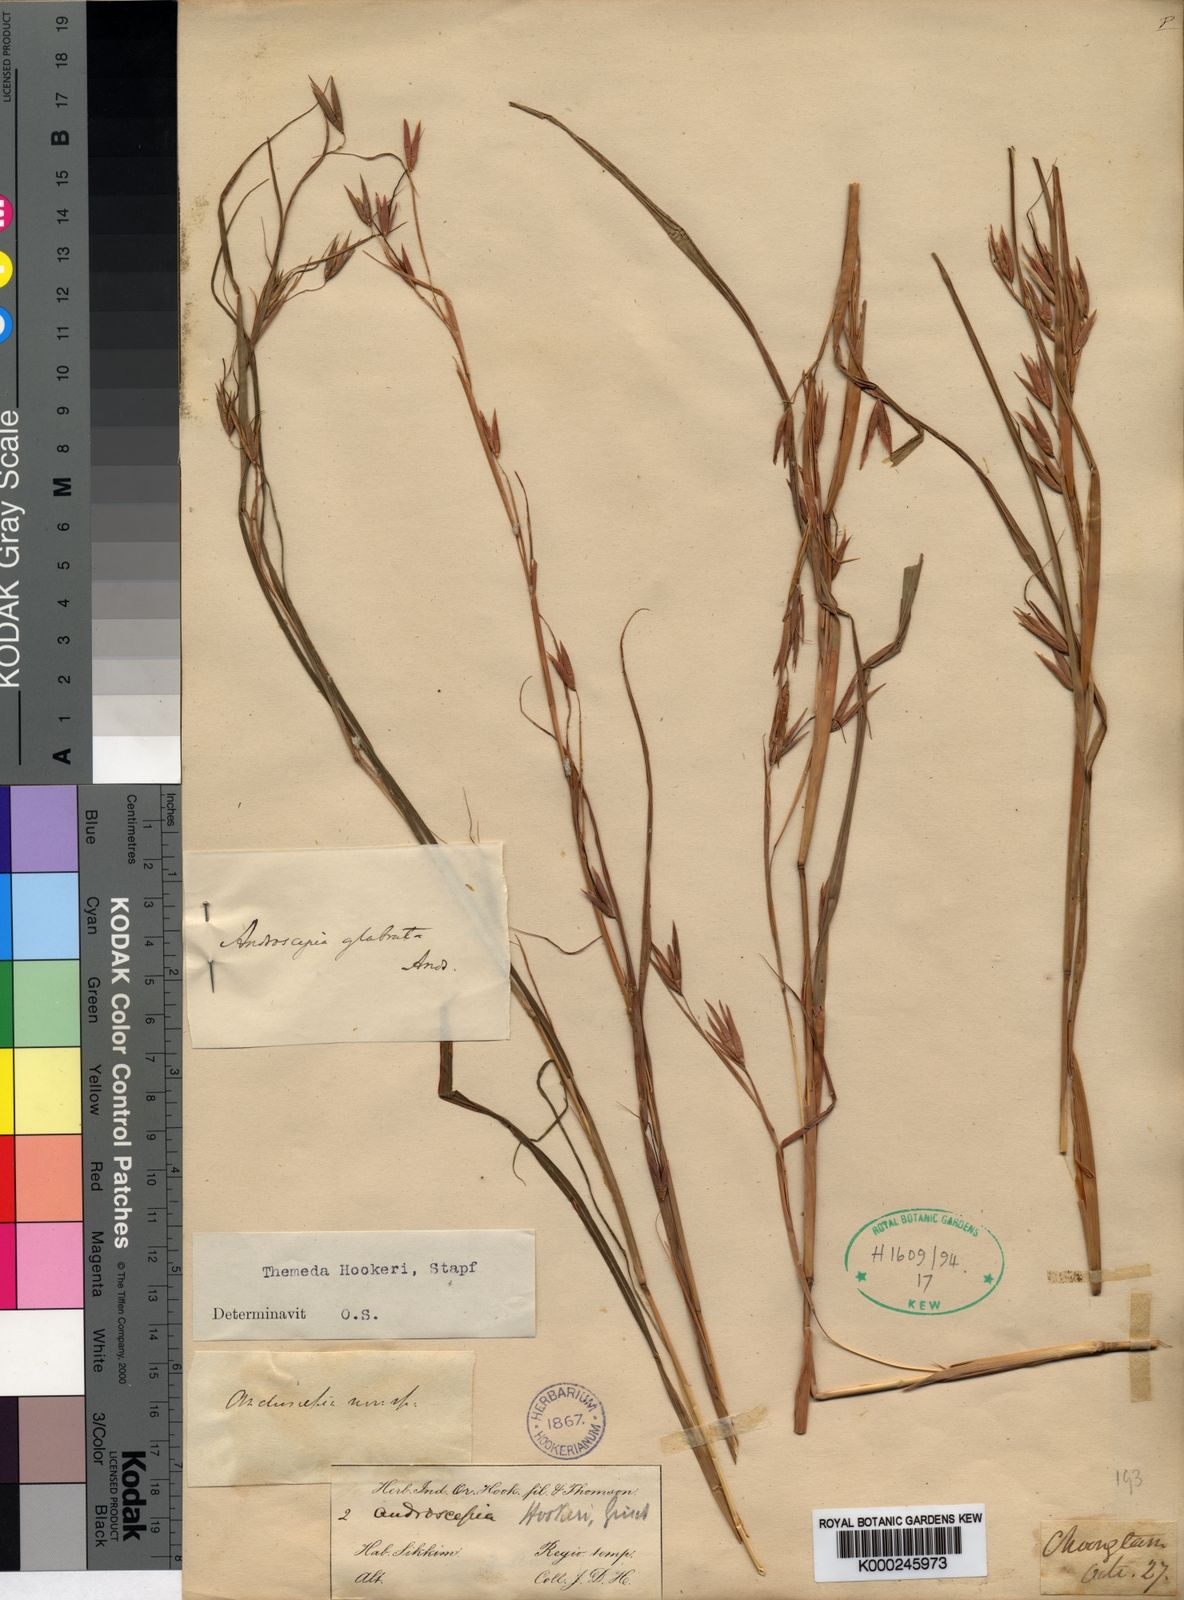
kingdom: Plantae
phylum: Tracheophyta
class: Liliopsida
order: Poales
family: Poaceae
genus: Themeda
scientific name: Themeda hookeri
